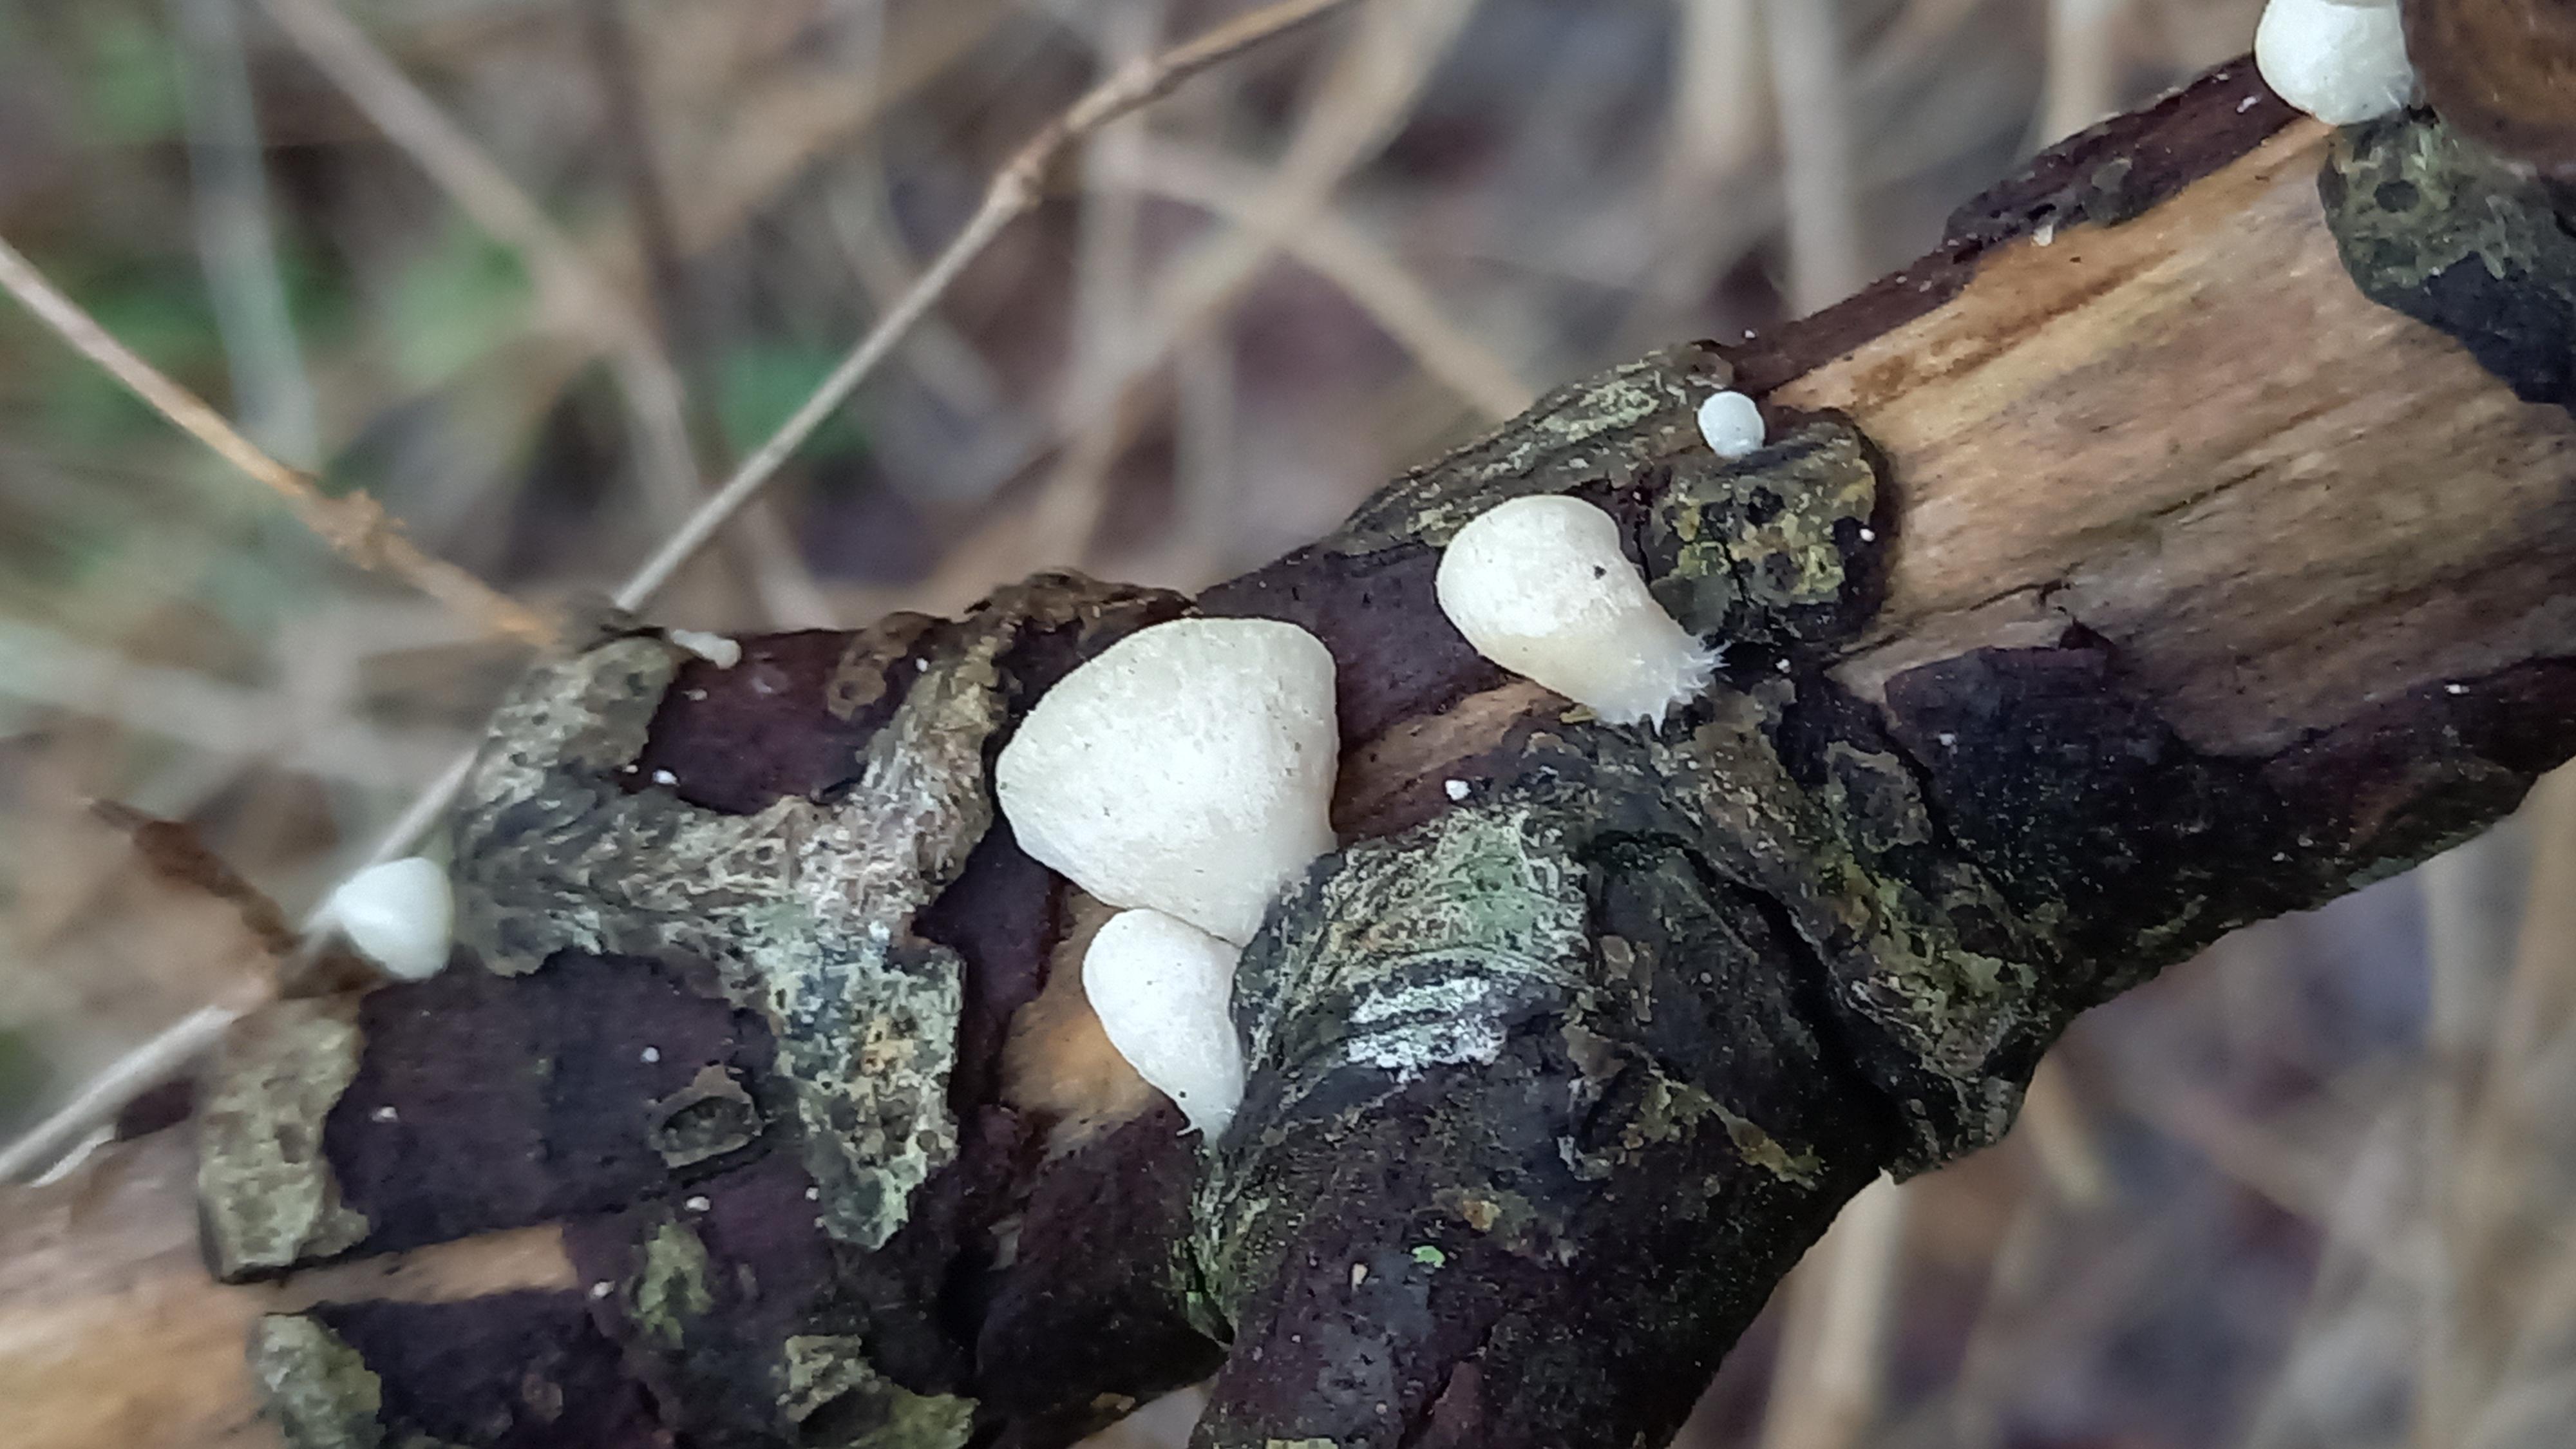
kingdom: Fungi
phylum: Basidiomycota
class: Agaricomycetes
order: Agaricales
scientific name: Agaricales
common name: champignonordenen
